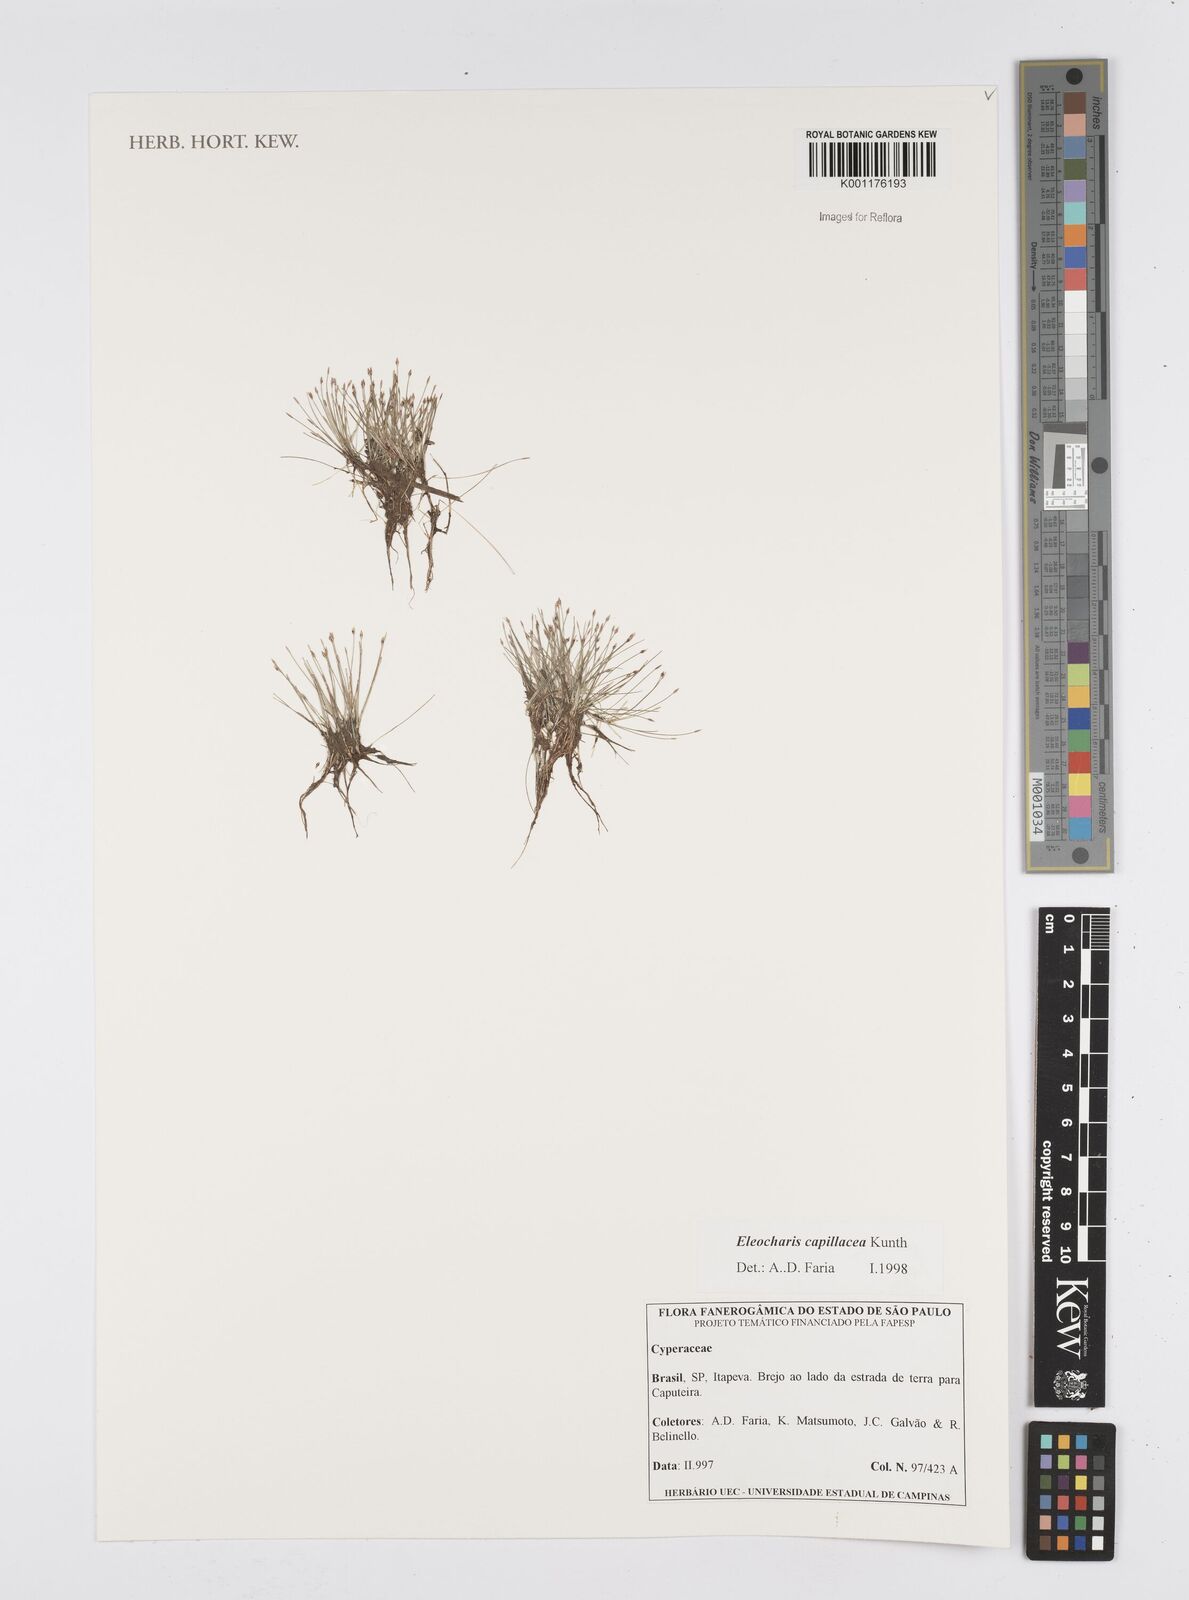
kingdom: Plantae
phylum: Tracheophyta
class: Liliopsida
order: Poales
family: Cyperaceae
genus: Eleocharis
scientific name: Eleocharis capillacea
